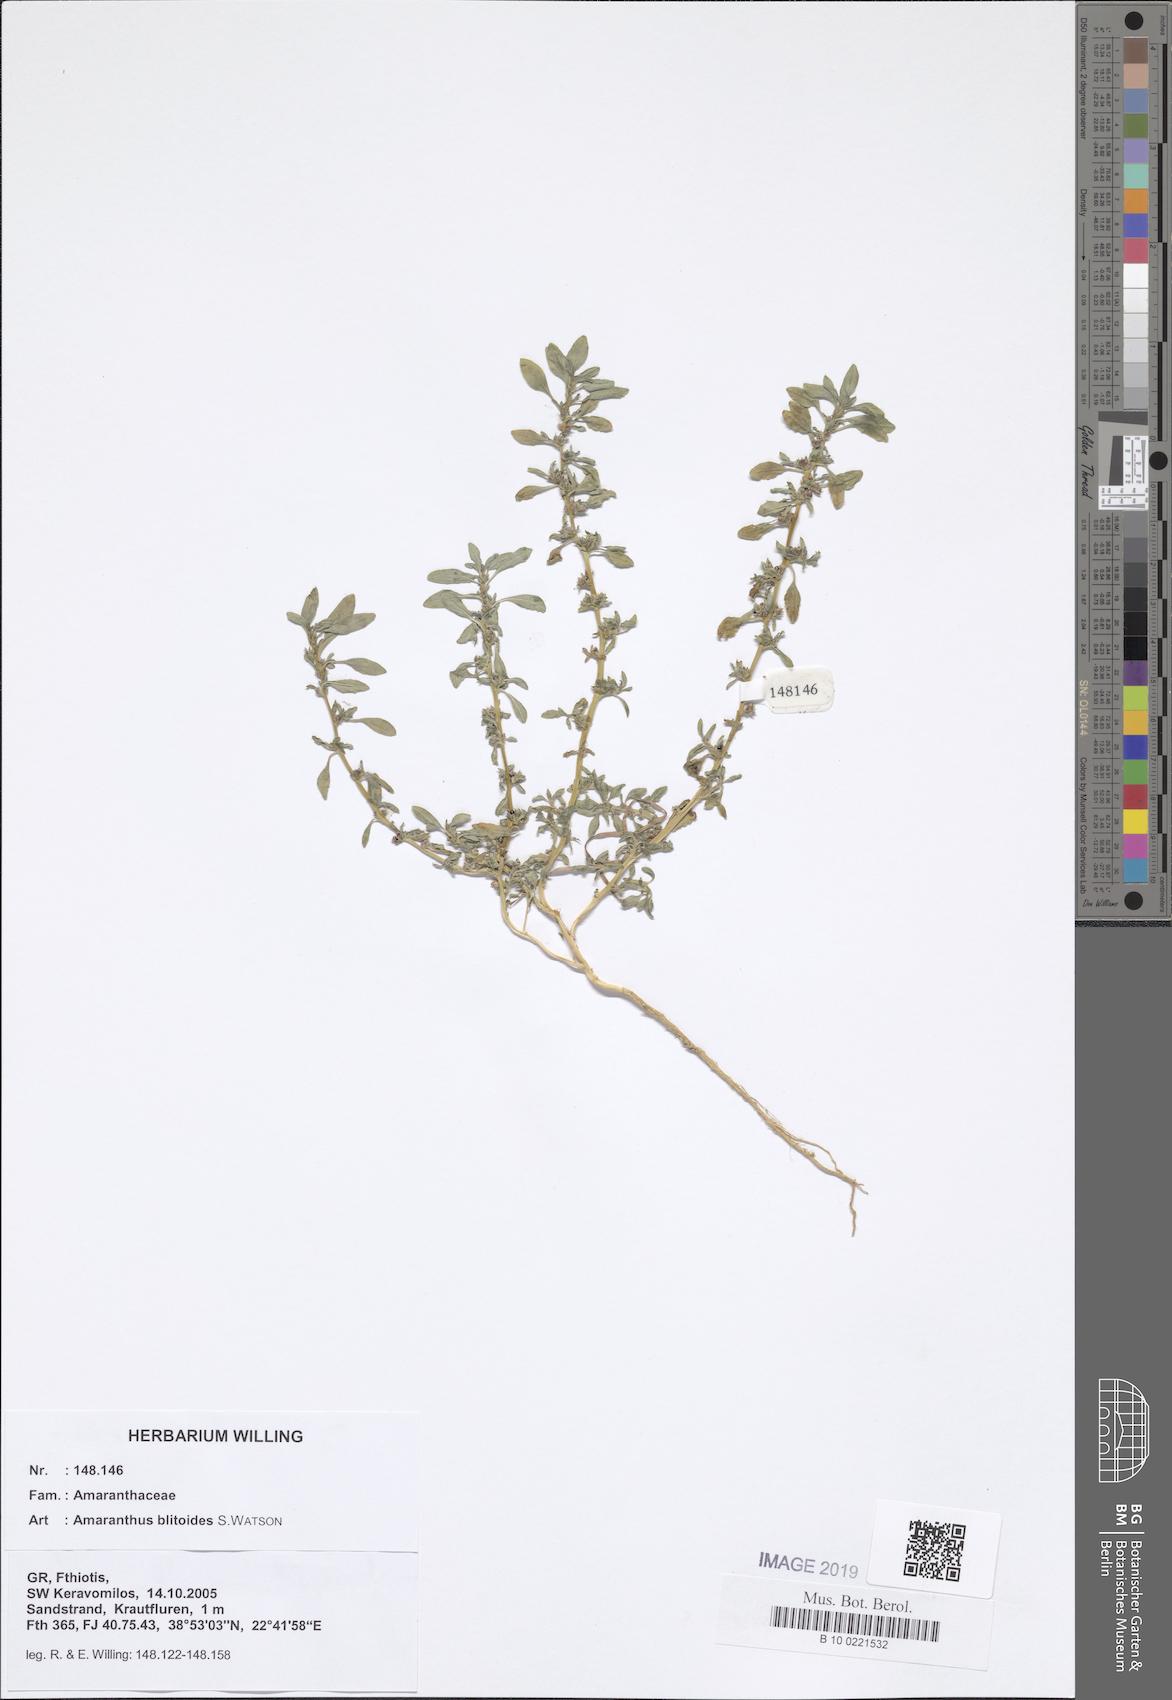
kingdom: Plantae
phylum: Tracheophyta
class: Magnoliopsida
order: Caryophyllales
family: Amaranthaceae
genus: Amaranthus
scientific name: Amaranthus blitoides
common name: Prostrate pigweed
